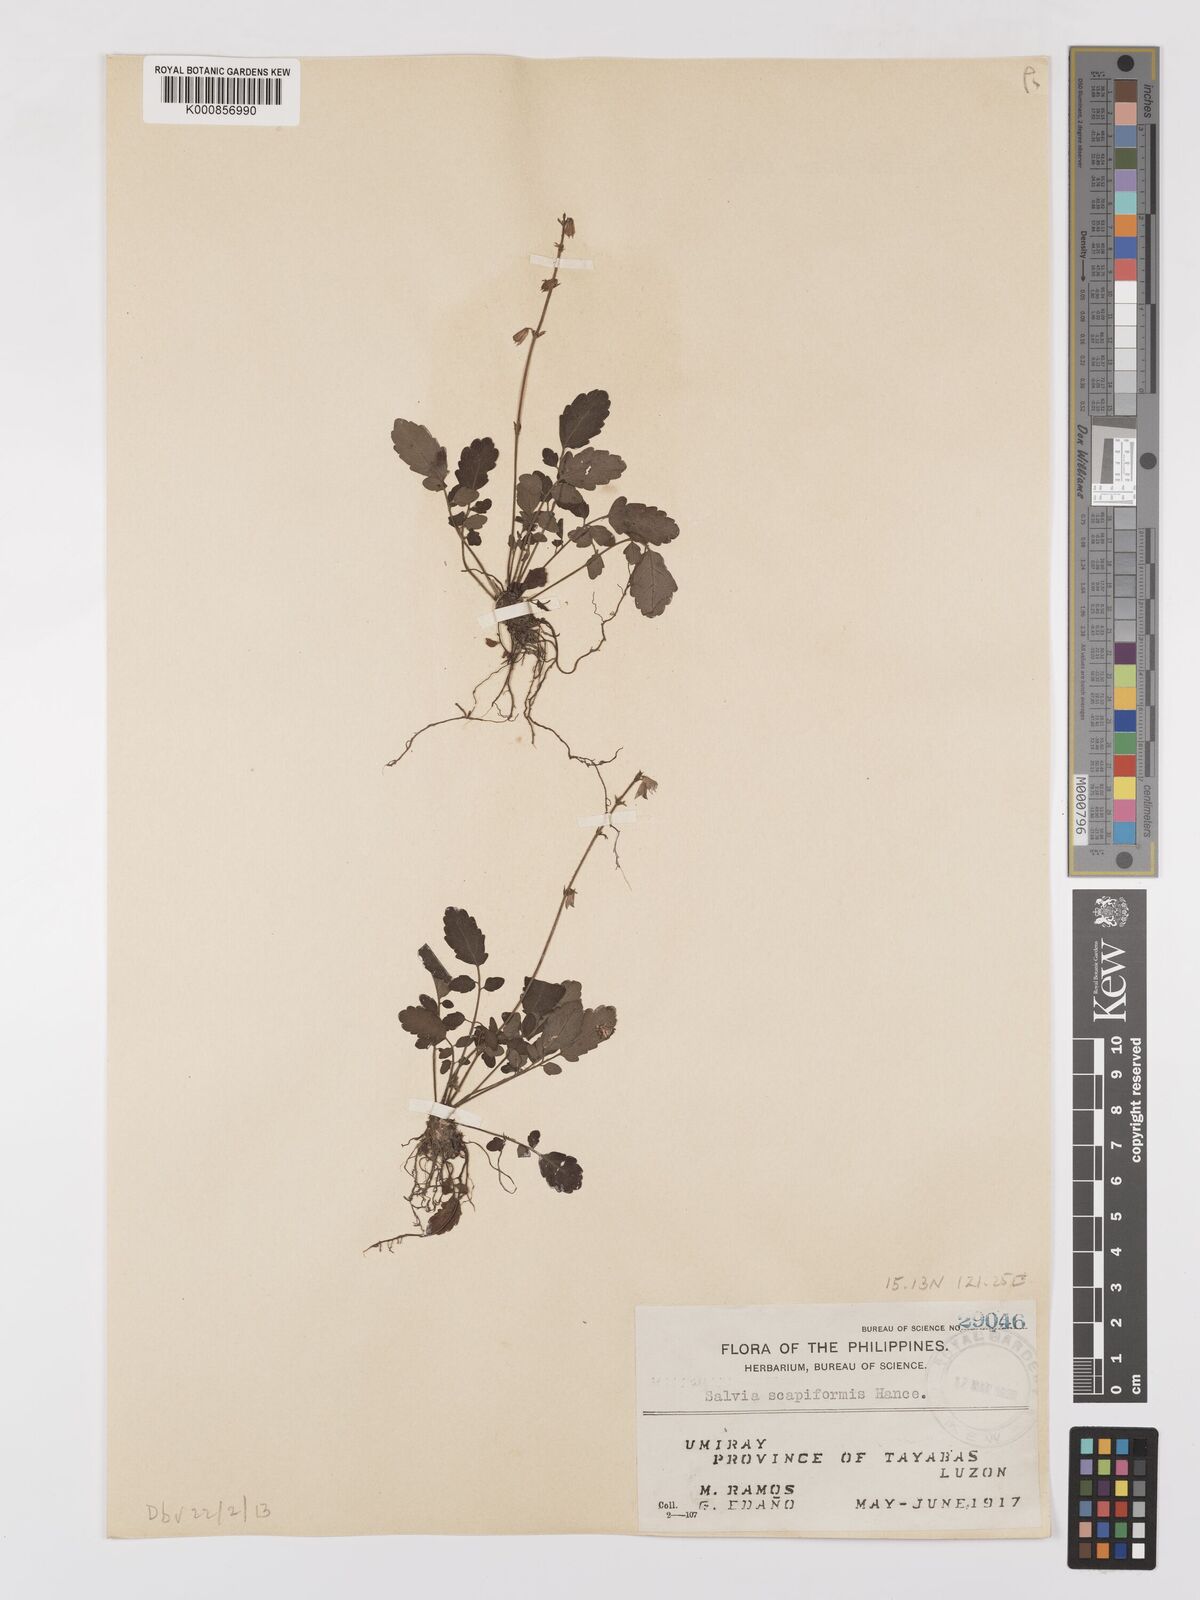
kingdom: Plantae
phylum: Tracheophyta
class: Magnoliopsida
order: Lamiales
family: Lamiaceae
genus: Salvia
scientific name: Salvia scapiformis
